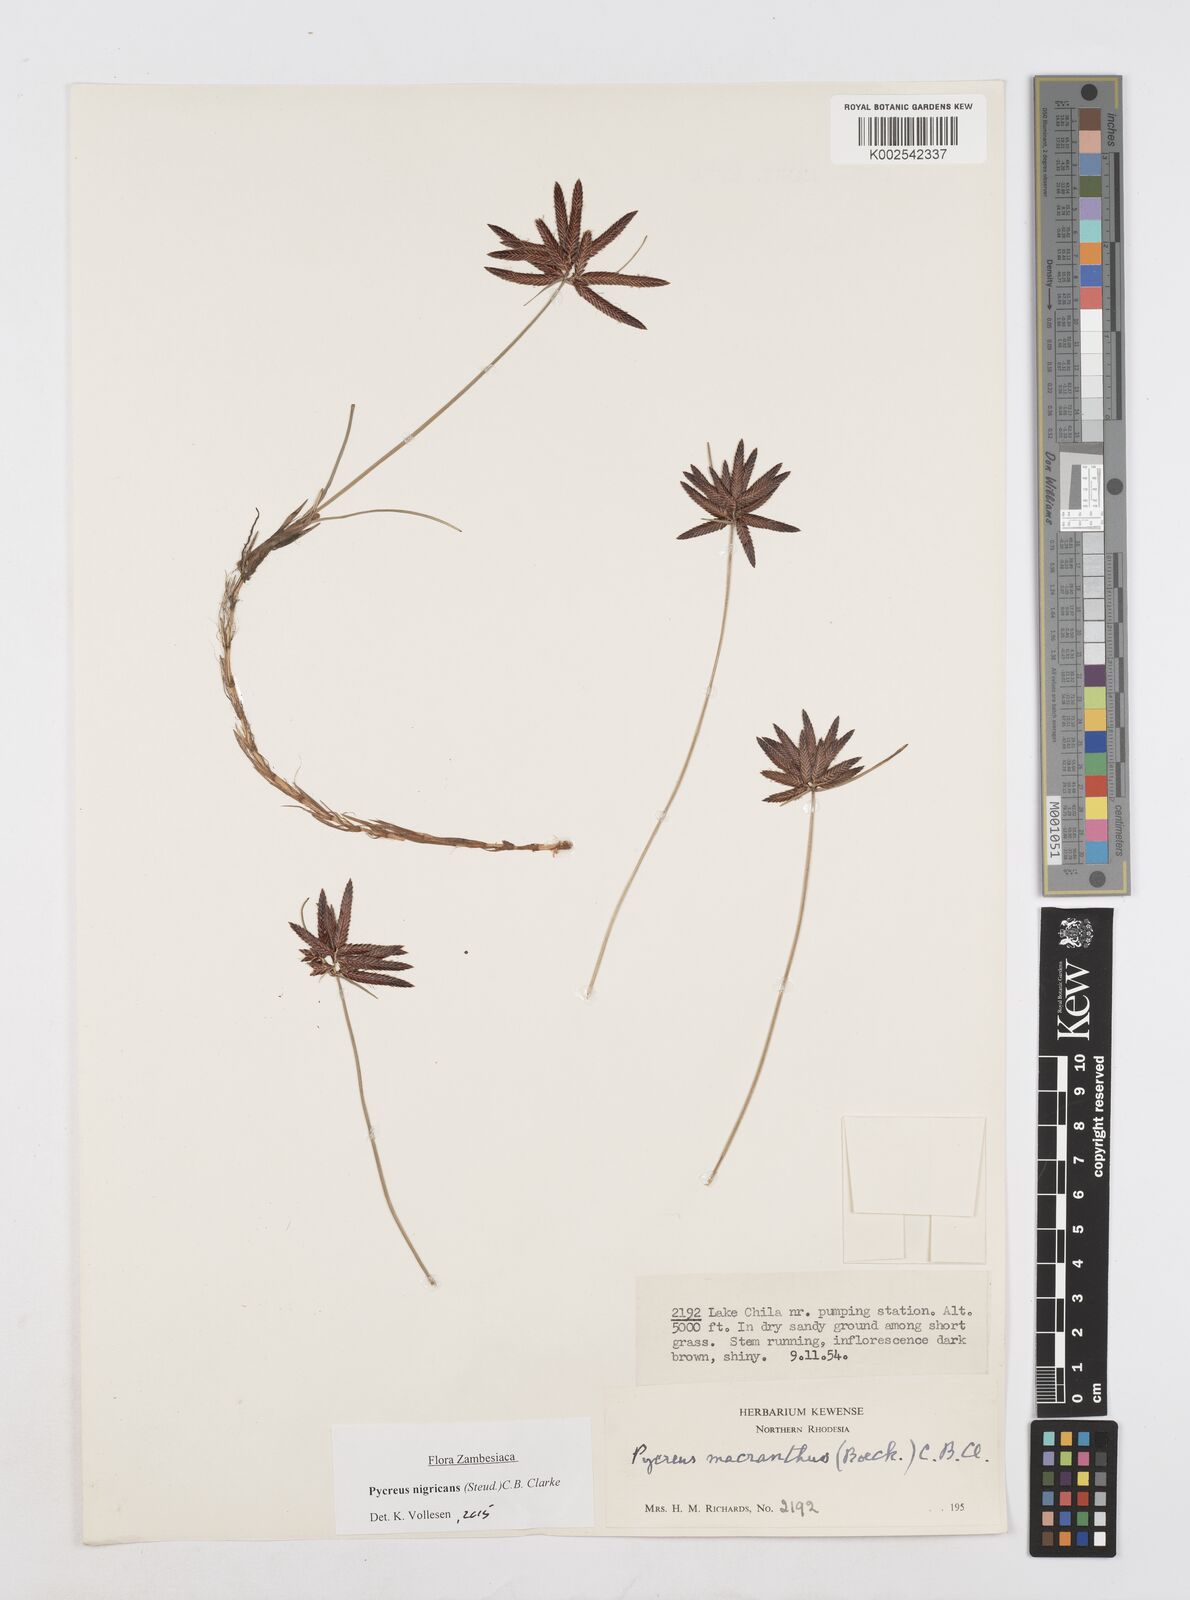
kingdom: Plantae
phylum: Tracheophyta
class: Liliopsida
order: Poales
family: Cyperaceae
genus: Cyperus
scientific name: Cyperus nigricans
